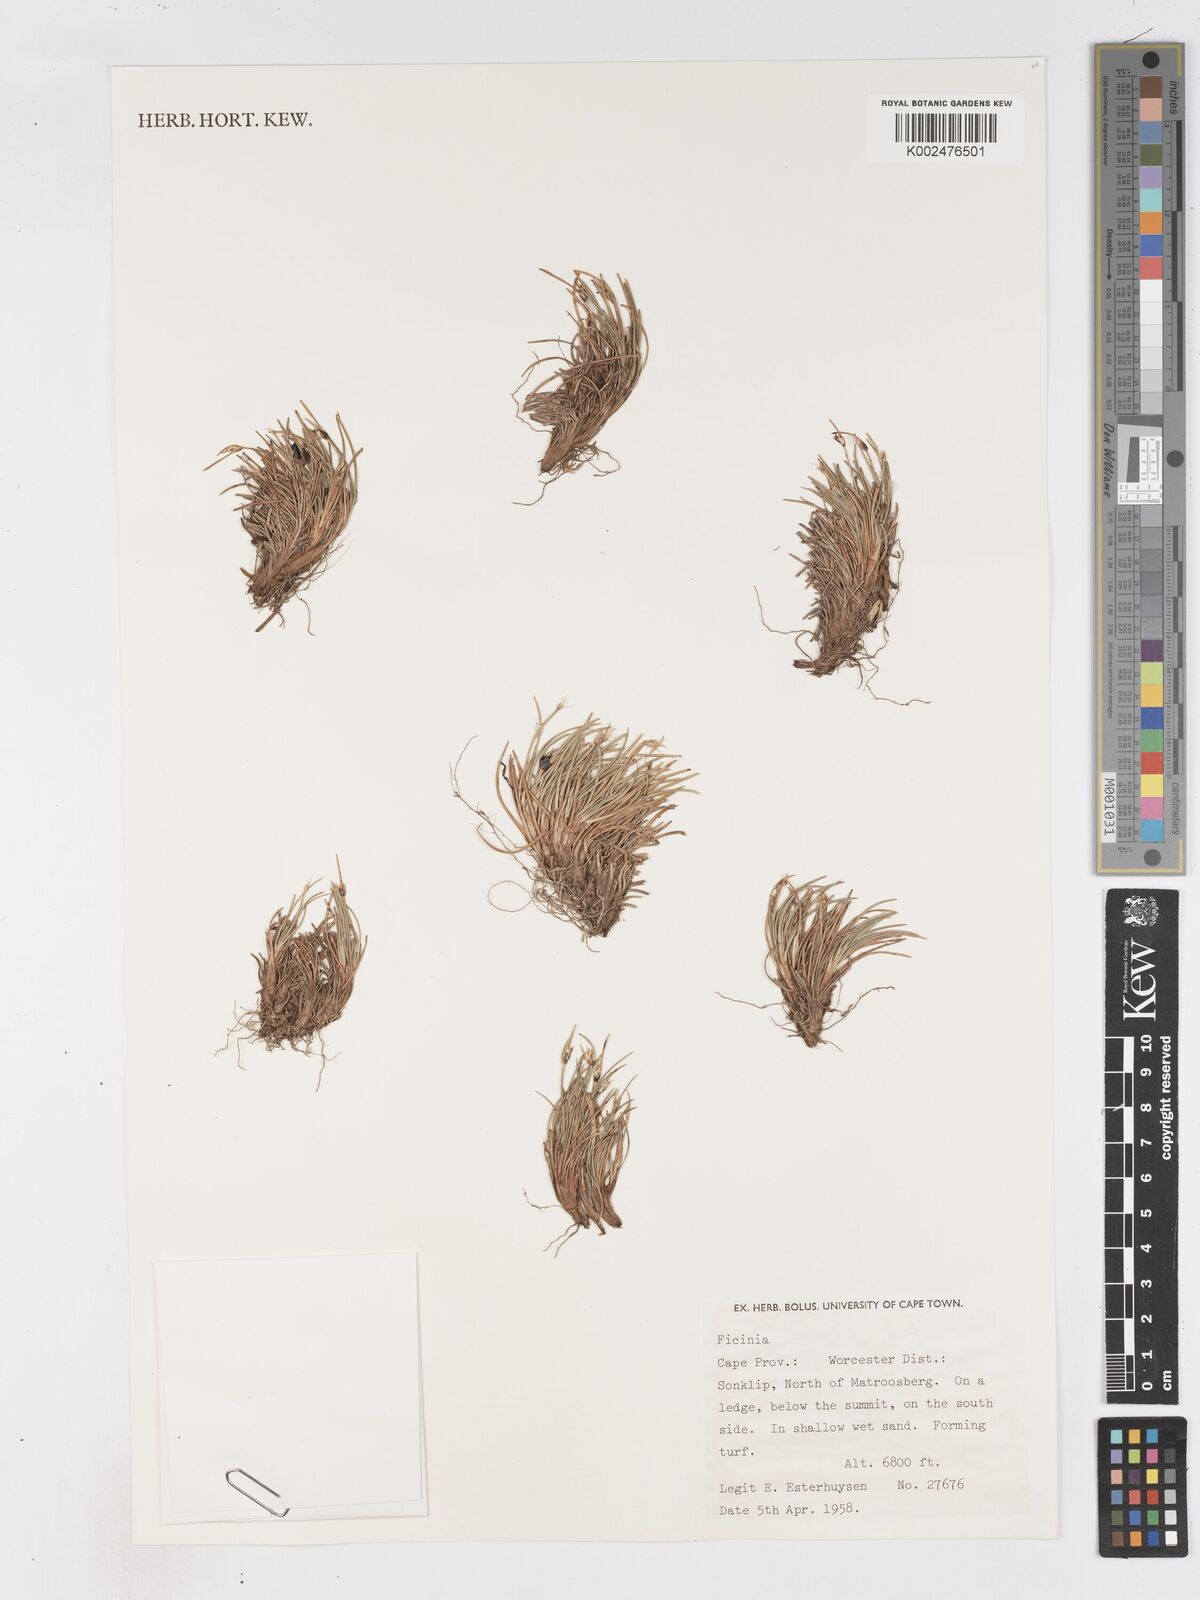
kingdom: Plantae
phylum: Tracheophyta
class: Liliopsida
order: Poales
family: Cyperaceae
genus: Ficinia
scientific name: Ficinia
